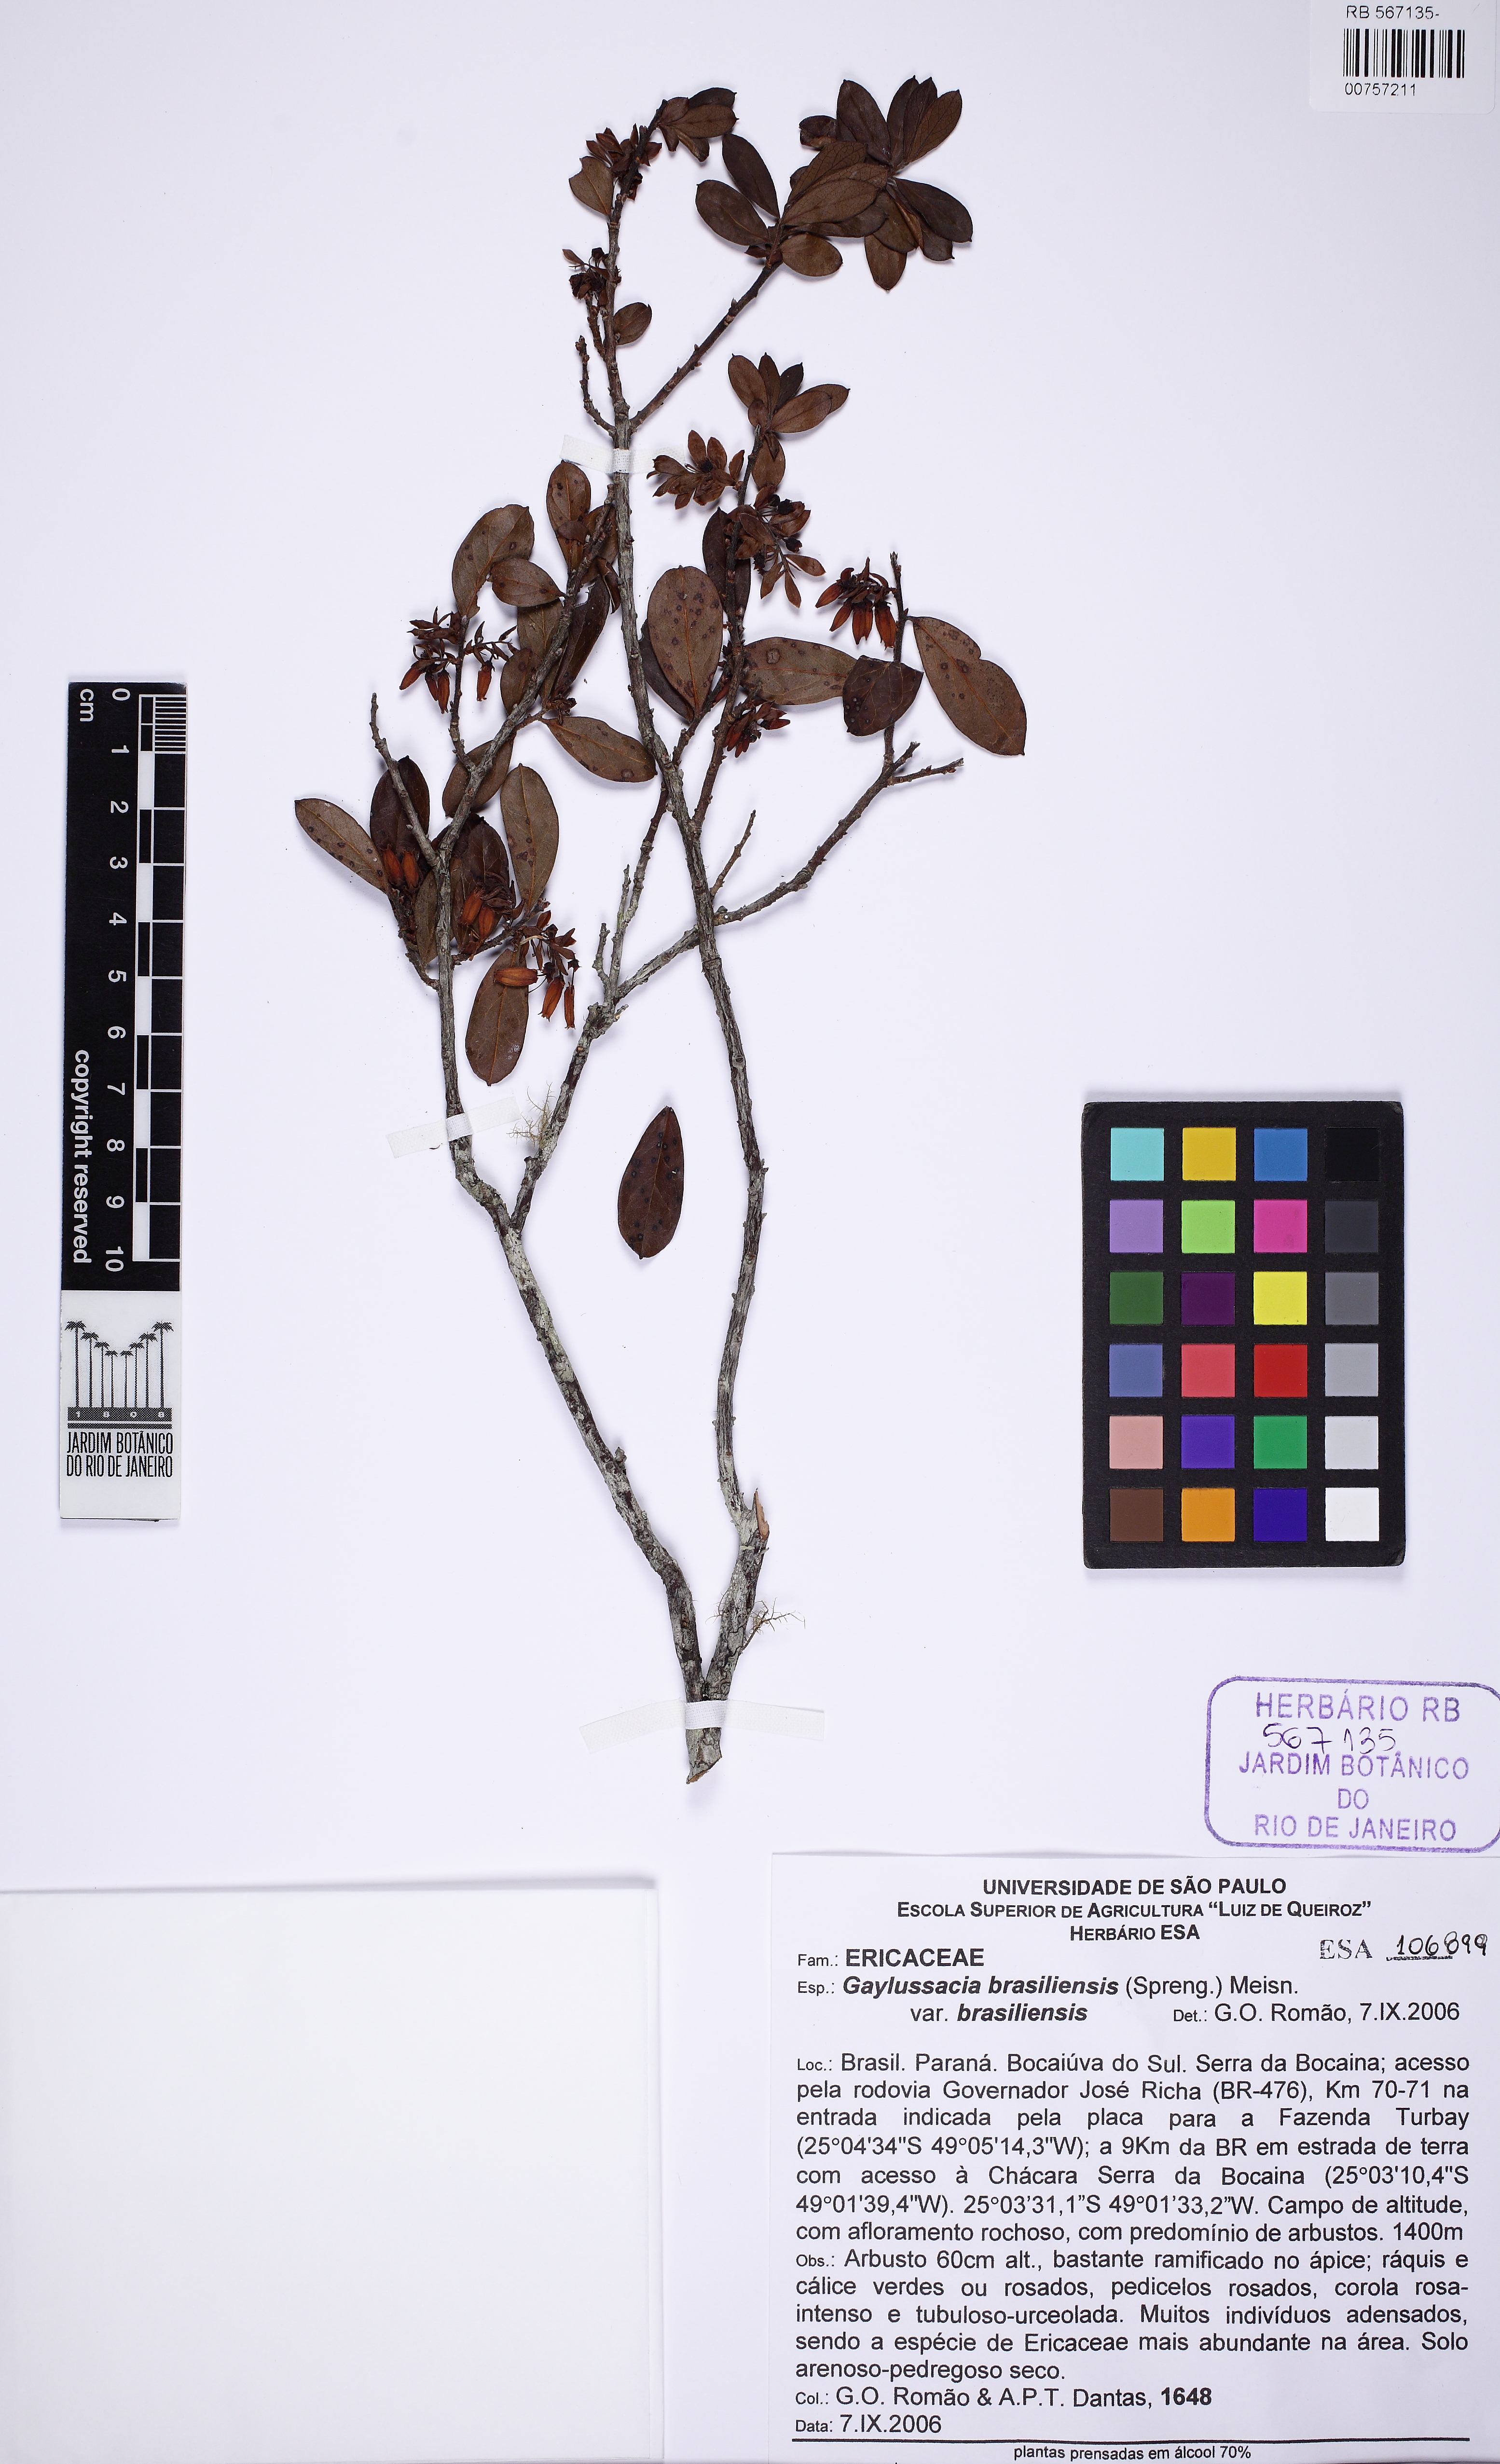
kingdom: Plantae
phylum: Tracheophyta
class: Magnoliopsida
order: Ericales
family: Ericaceae
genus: Gaylussacia
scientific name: Gaylussacia brasiliensis
